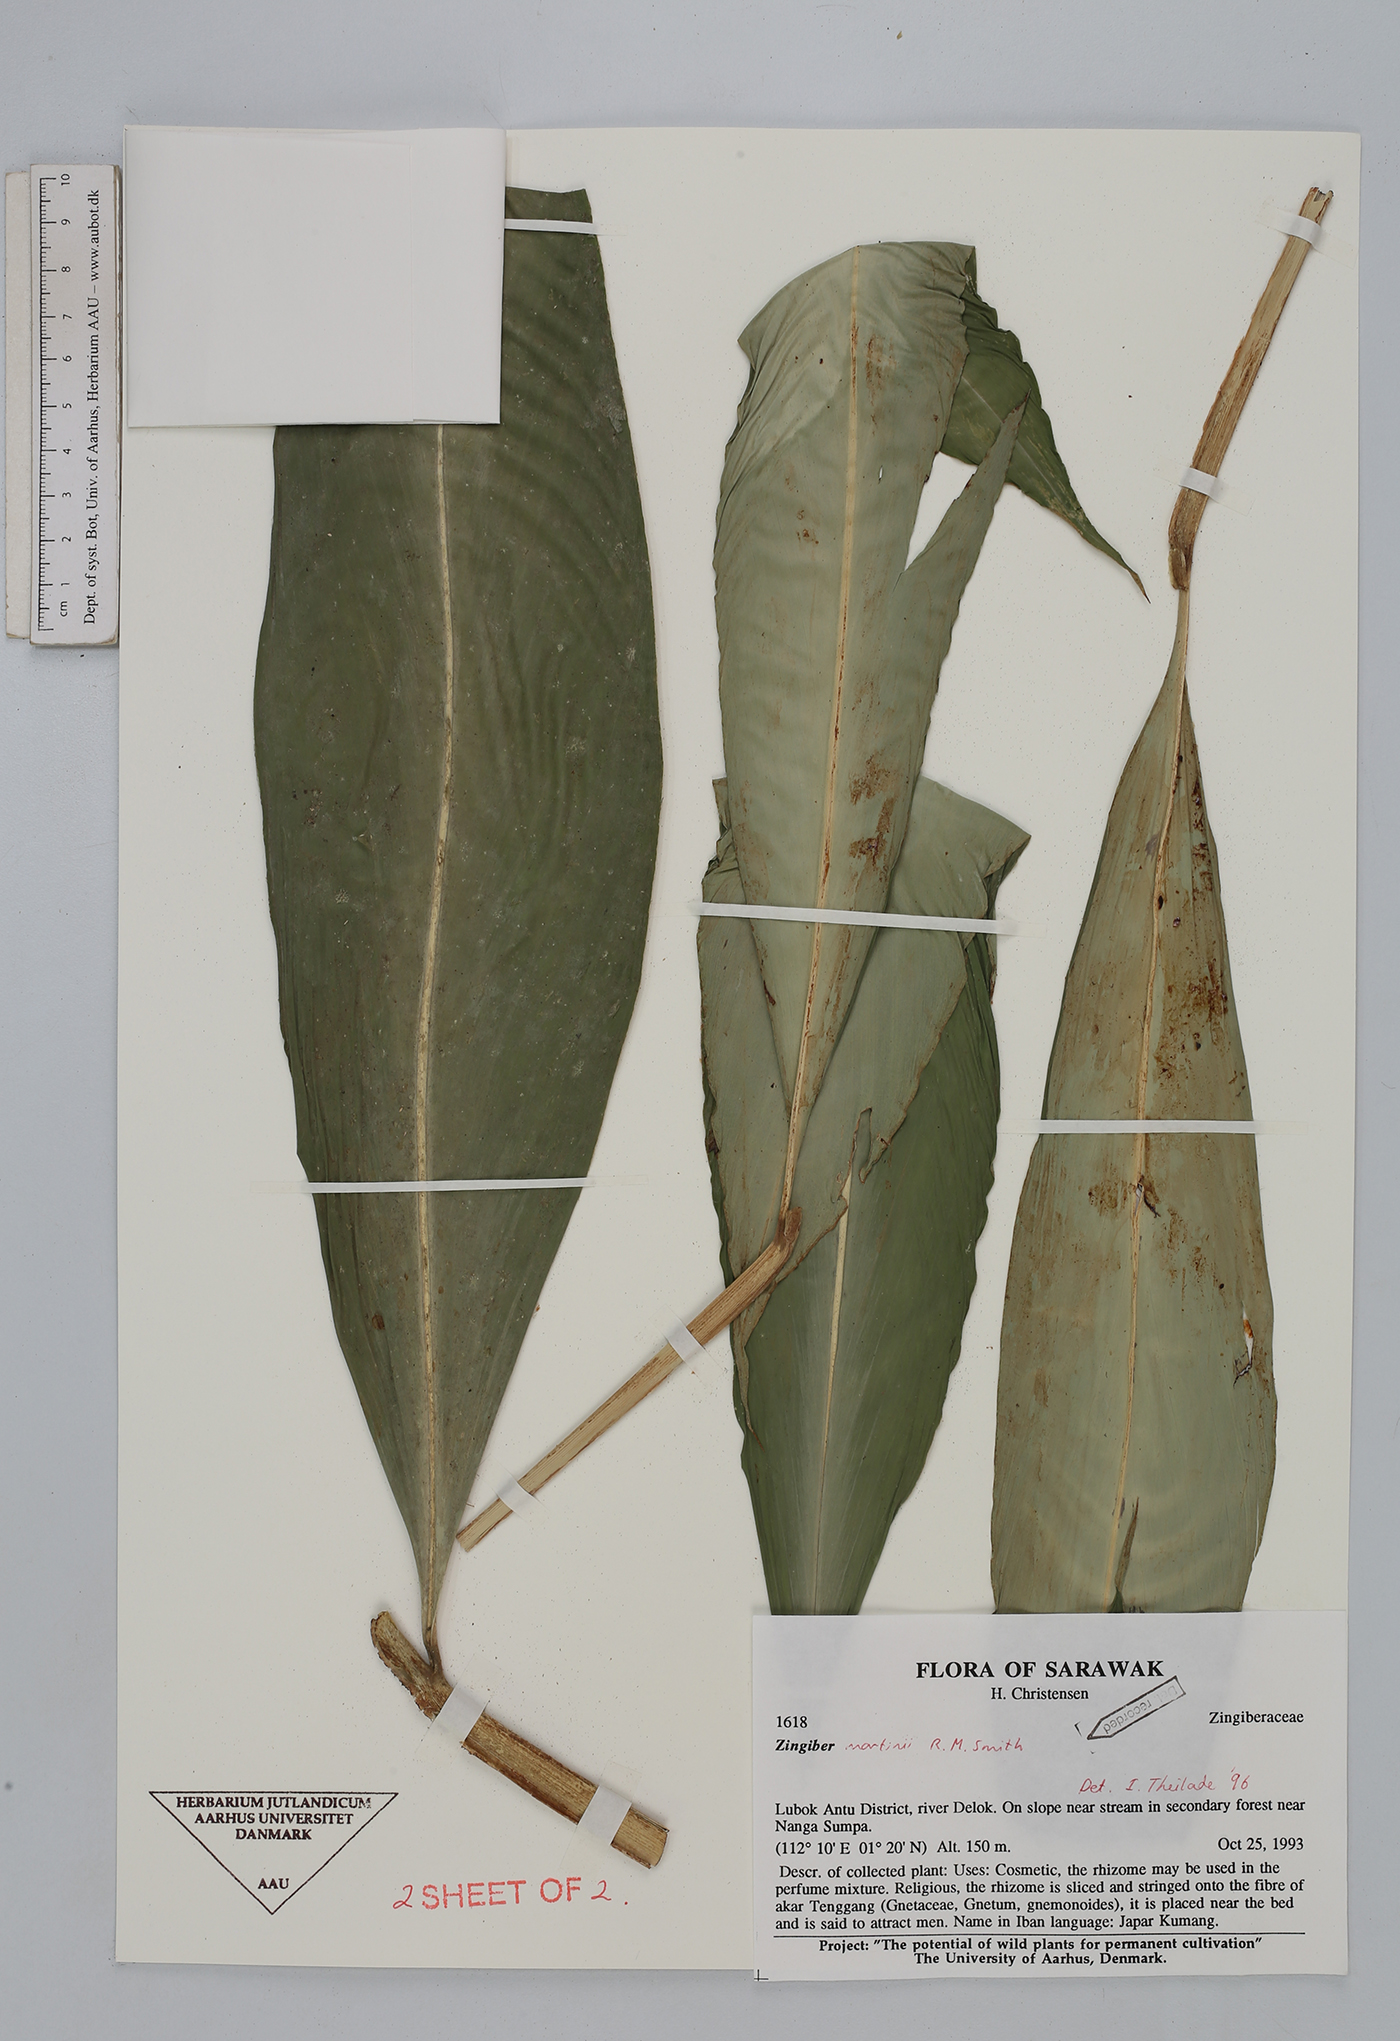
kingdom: Plantae
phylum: Tracheophyta
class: Liliopsida
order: Zingiberales
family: Zingiberaceae
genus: Zingiber
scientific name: Zingiber martini
